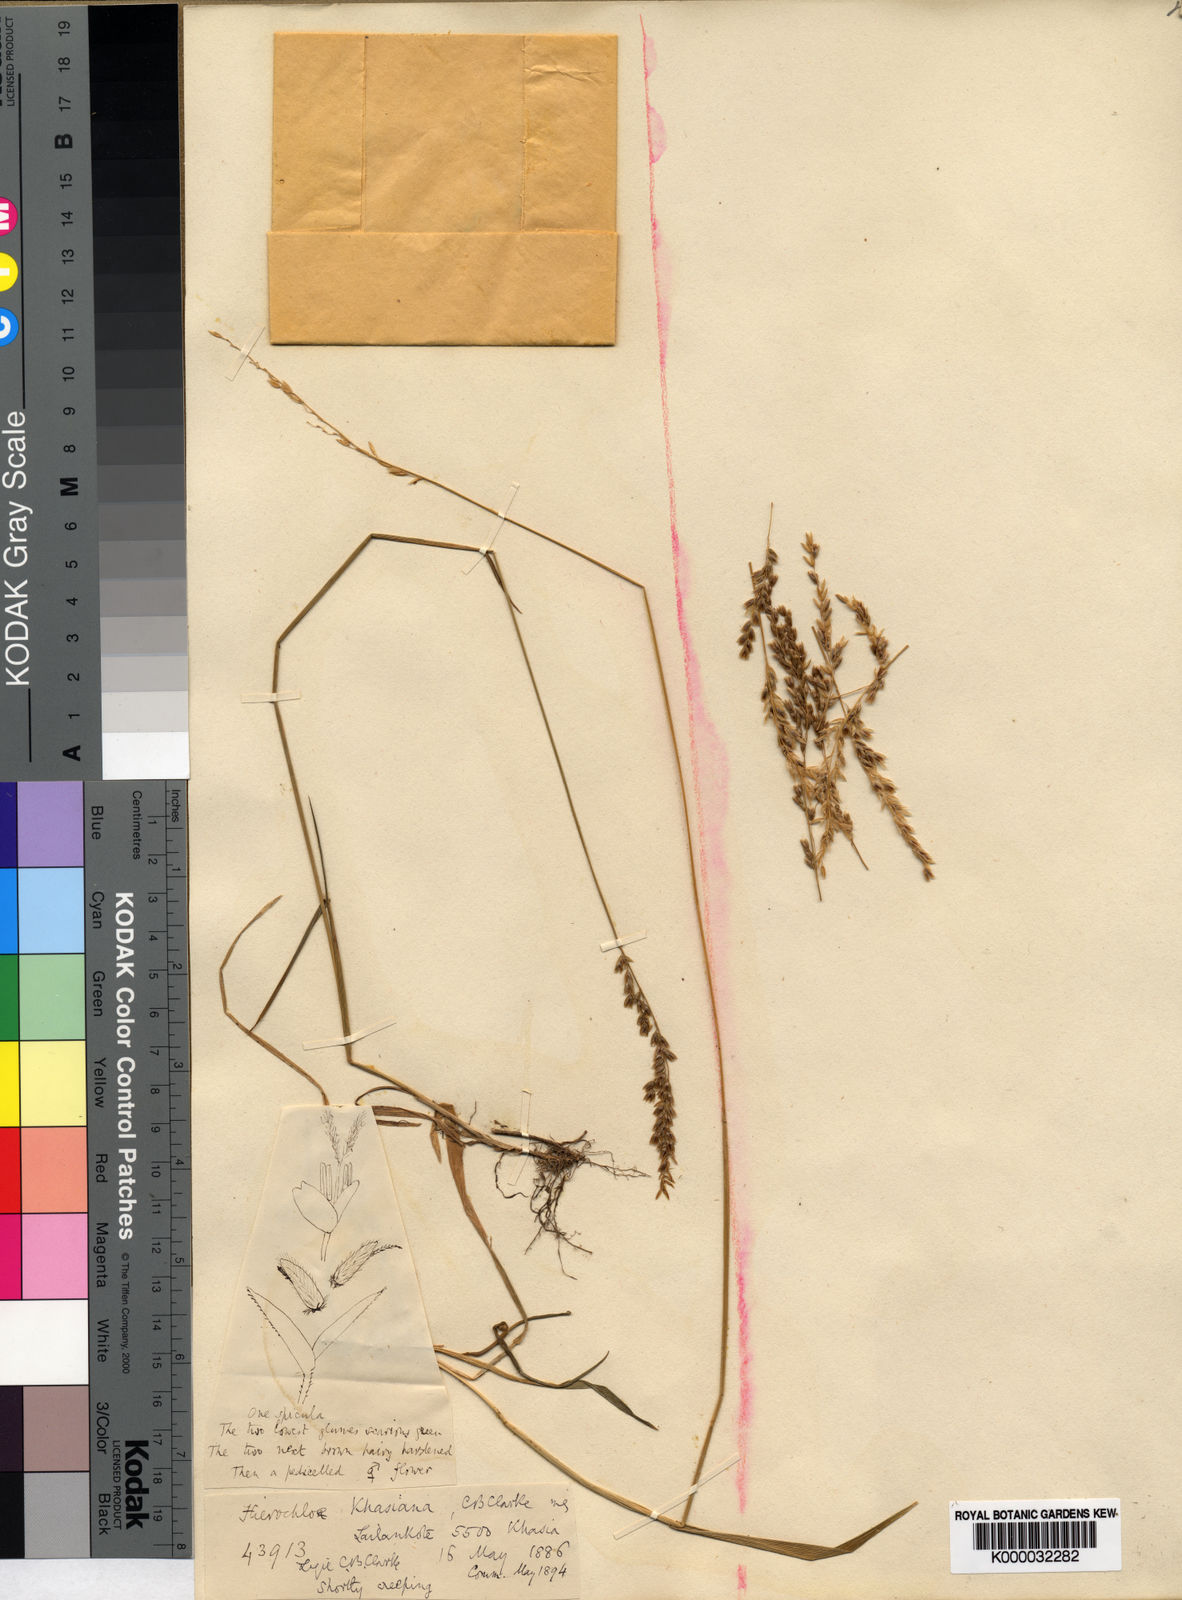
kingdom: Plantae
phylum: Tracheophyta
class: Liliopsida
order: Poales
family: Poaceae
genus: Hierochloe
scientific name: Hierochloe
